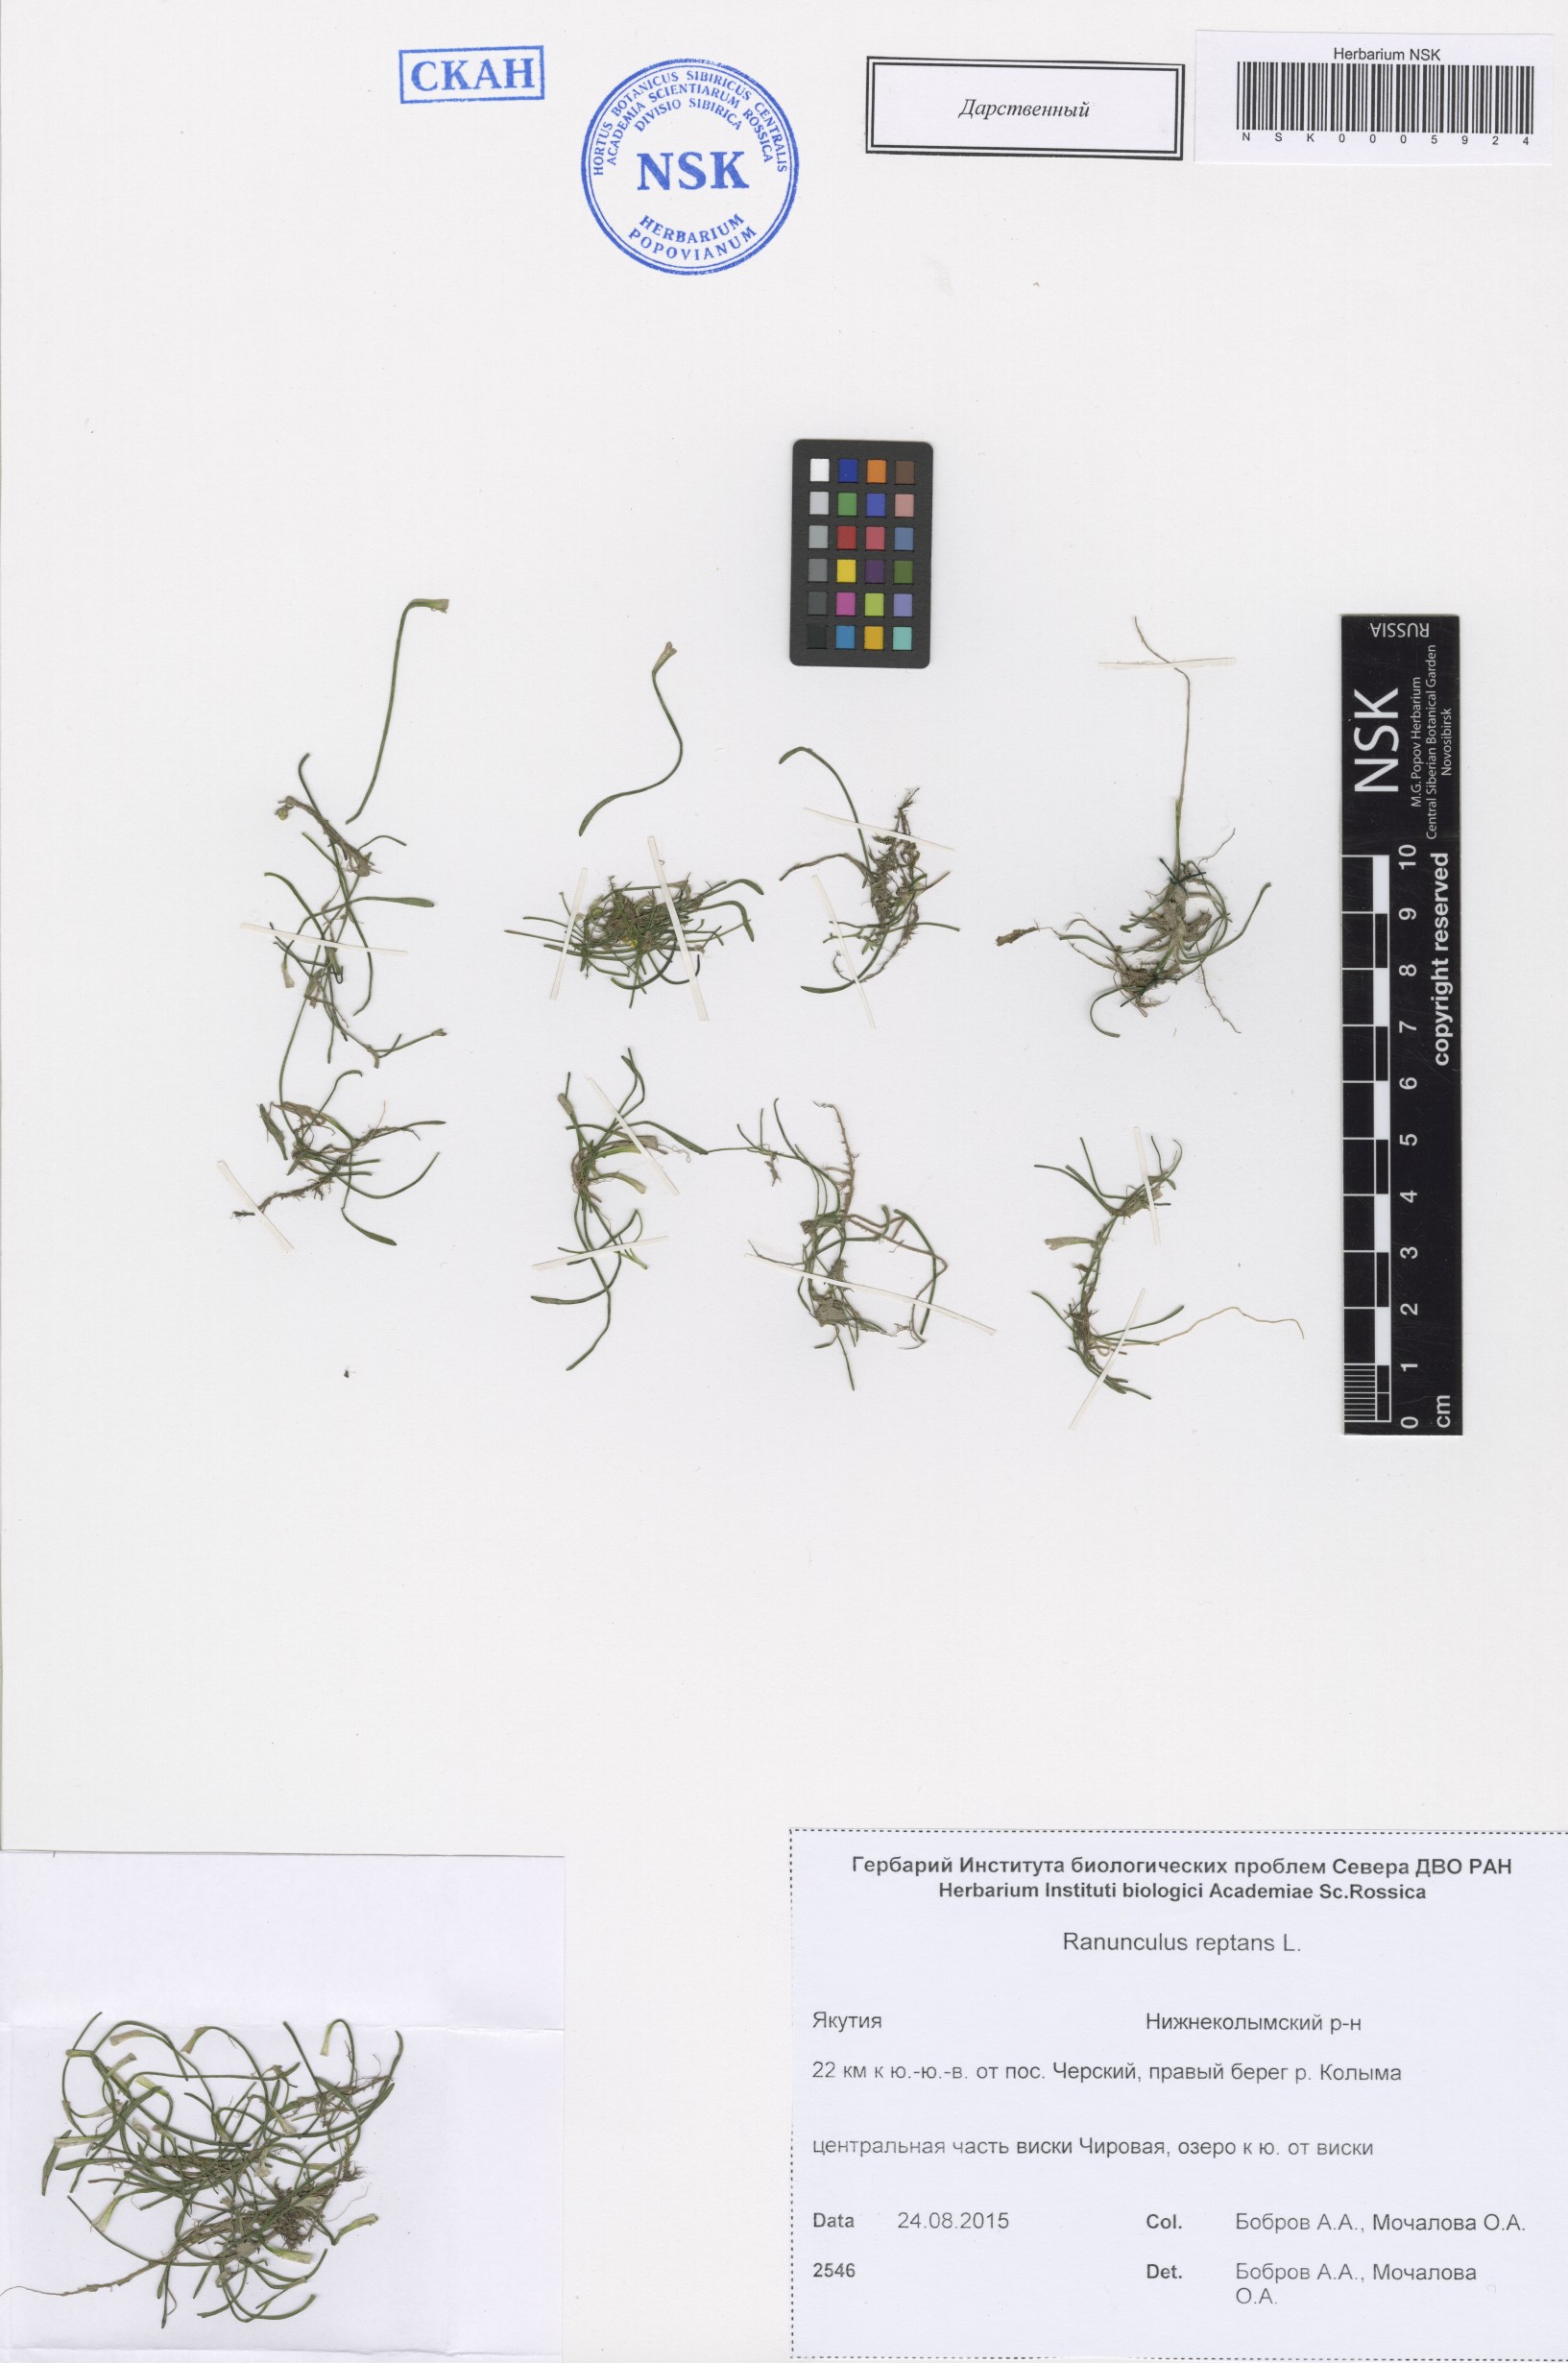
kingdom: Plantae
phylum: Tracheophyta
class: Magnoliopsida
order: Ranunculales
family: Ranunculaceae
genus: Ranunculus
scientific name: Ranunculus reptans
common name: Creeping spearwort
